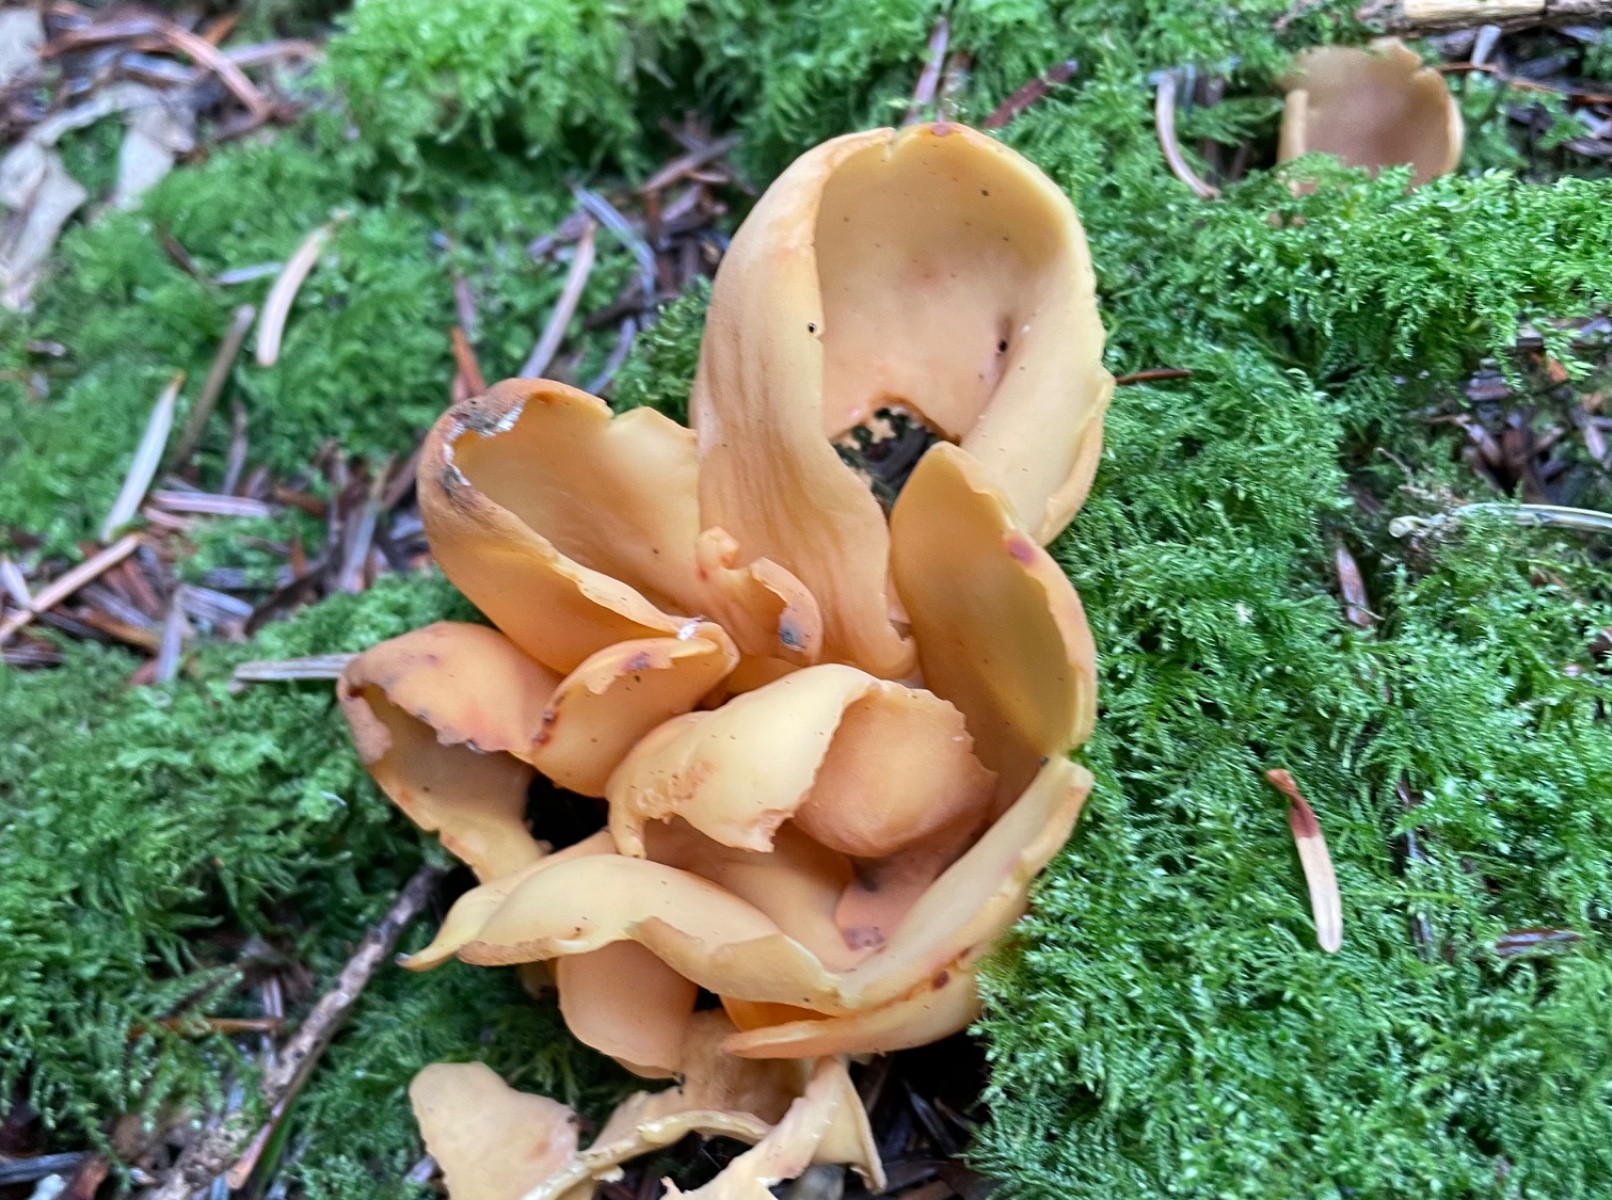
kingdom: Fungi
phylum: Ascomycota
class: Pezizomycetes
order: Pezizales
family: Otideaceae
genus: Otidea
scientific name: Otidea onotica
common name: æsel-ørebæger
